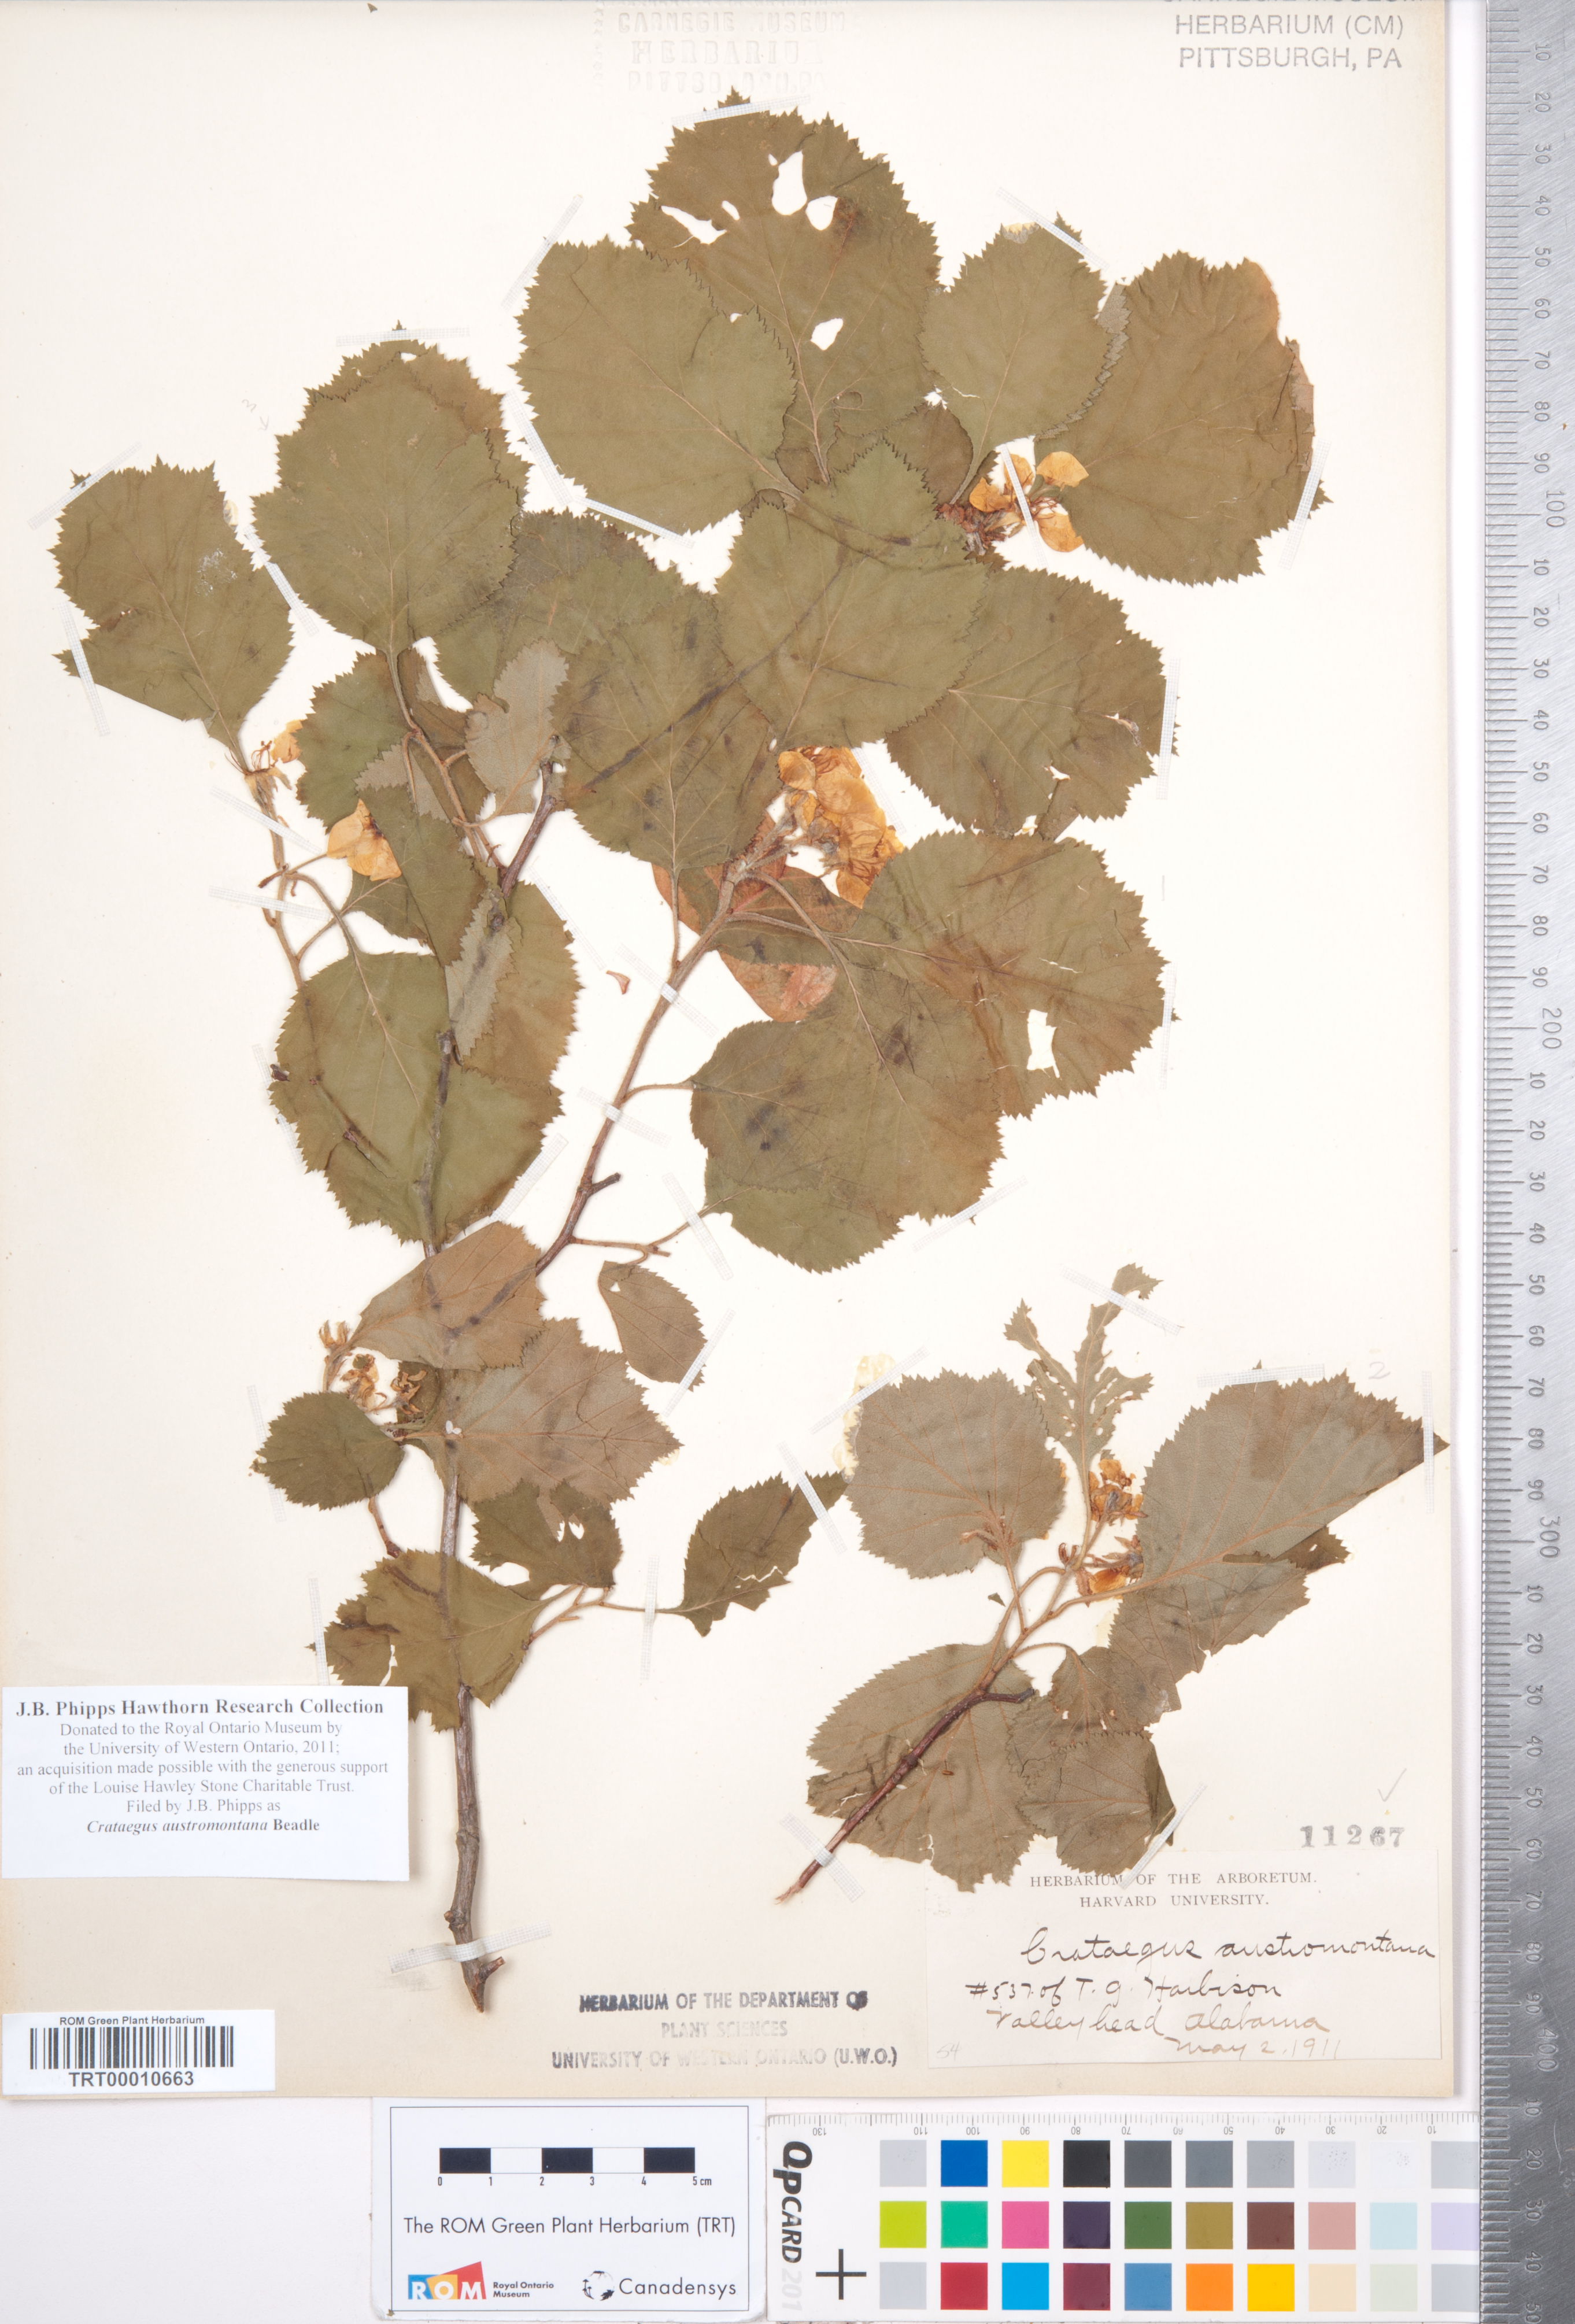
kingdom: Plantae
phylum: Tracheophyta
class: Magnoliopsida
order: Rosales
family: Rosaceae
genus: Crataegus
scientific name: Crataegus austromontana
